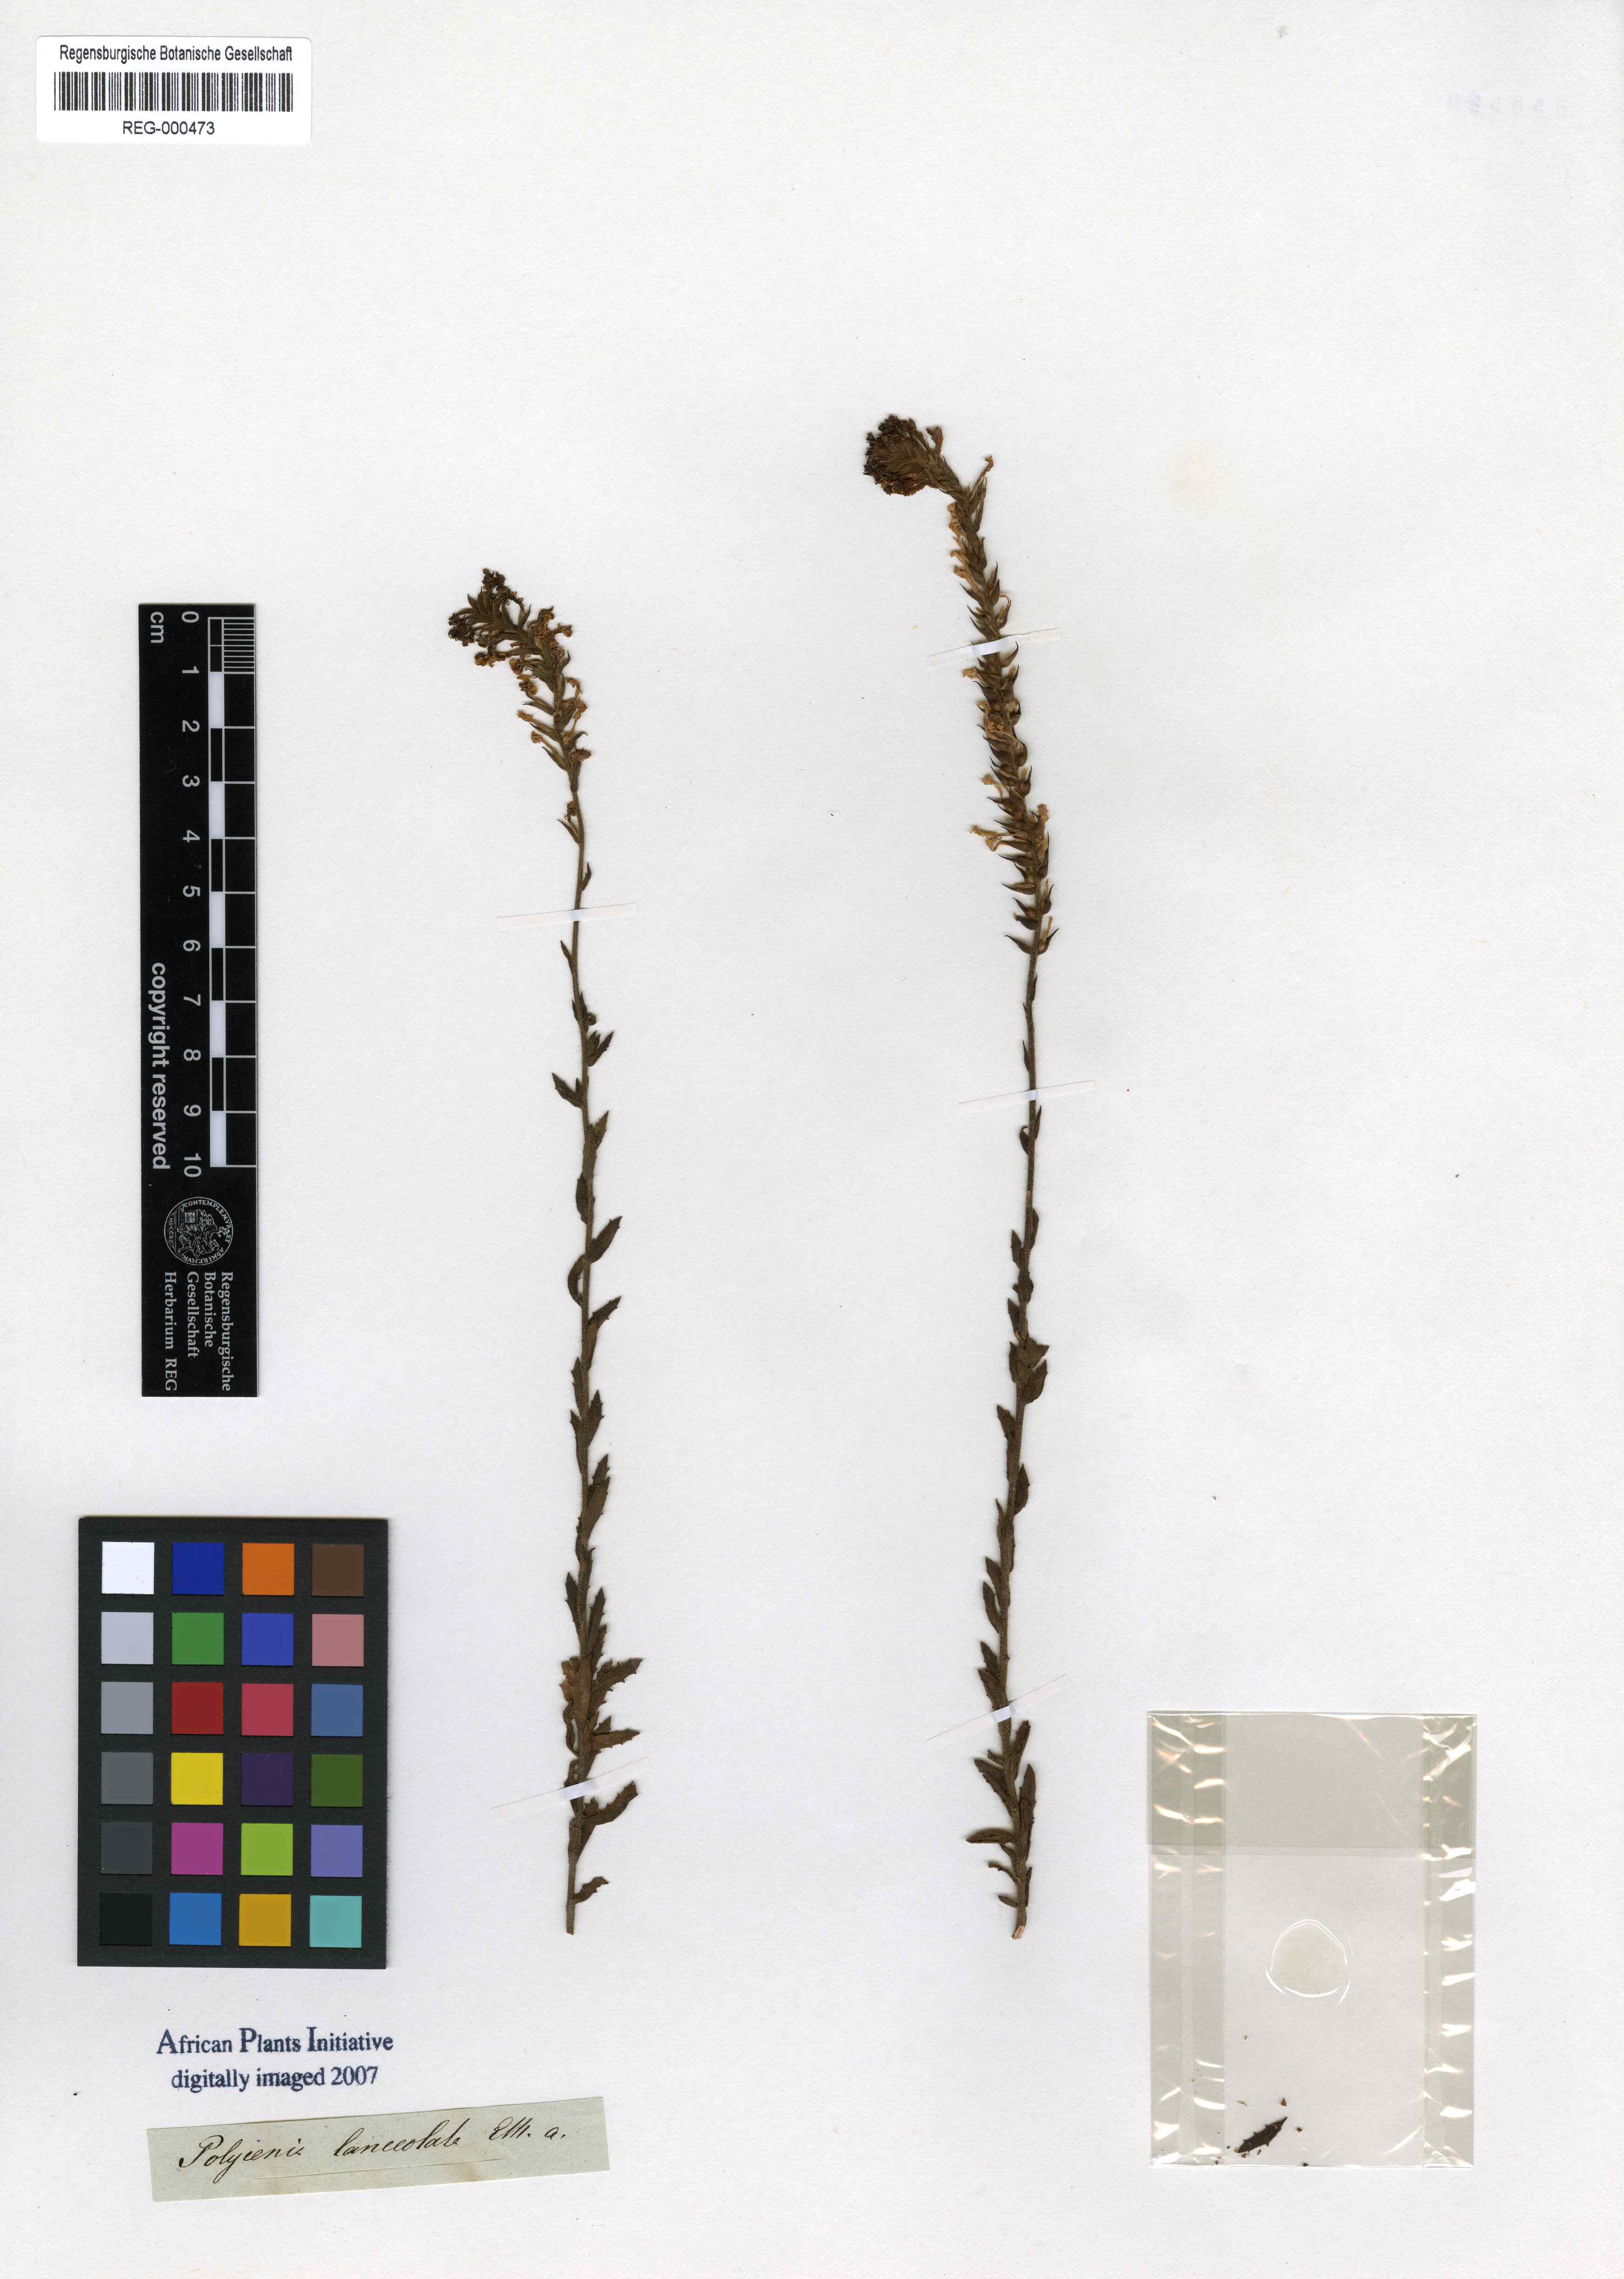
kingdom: Plantae
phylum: Tracheophyta
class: Magnoliopsida
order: Lamiales
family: Scrophulariaceae
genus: Hebenstretia
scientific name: Hebenstretia lanceolata
